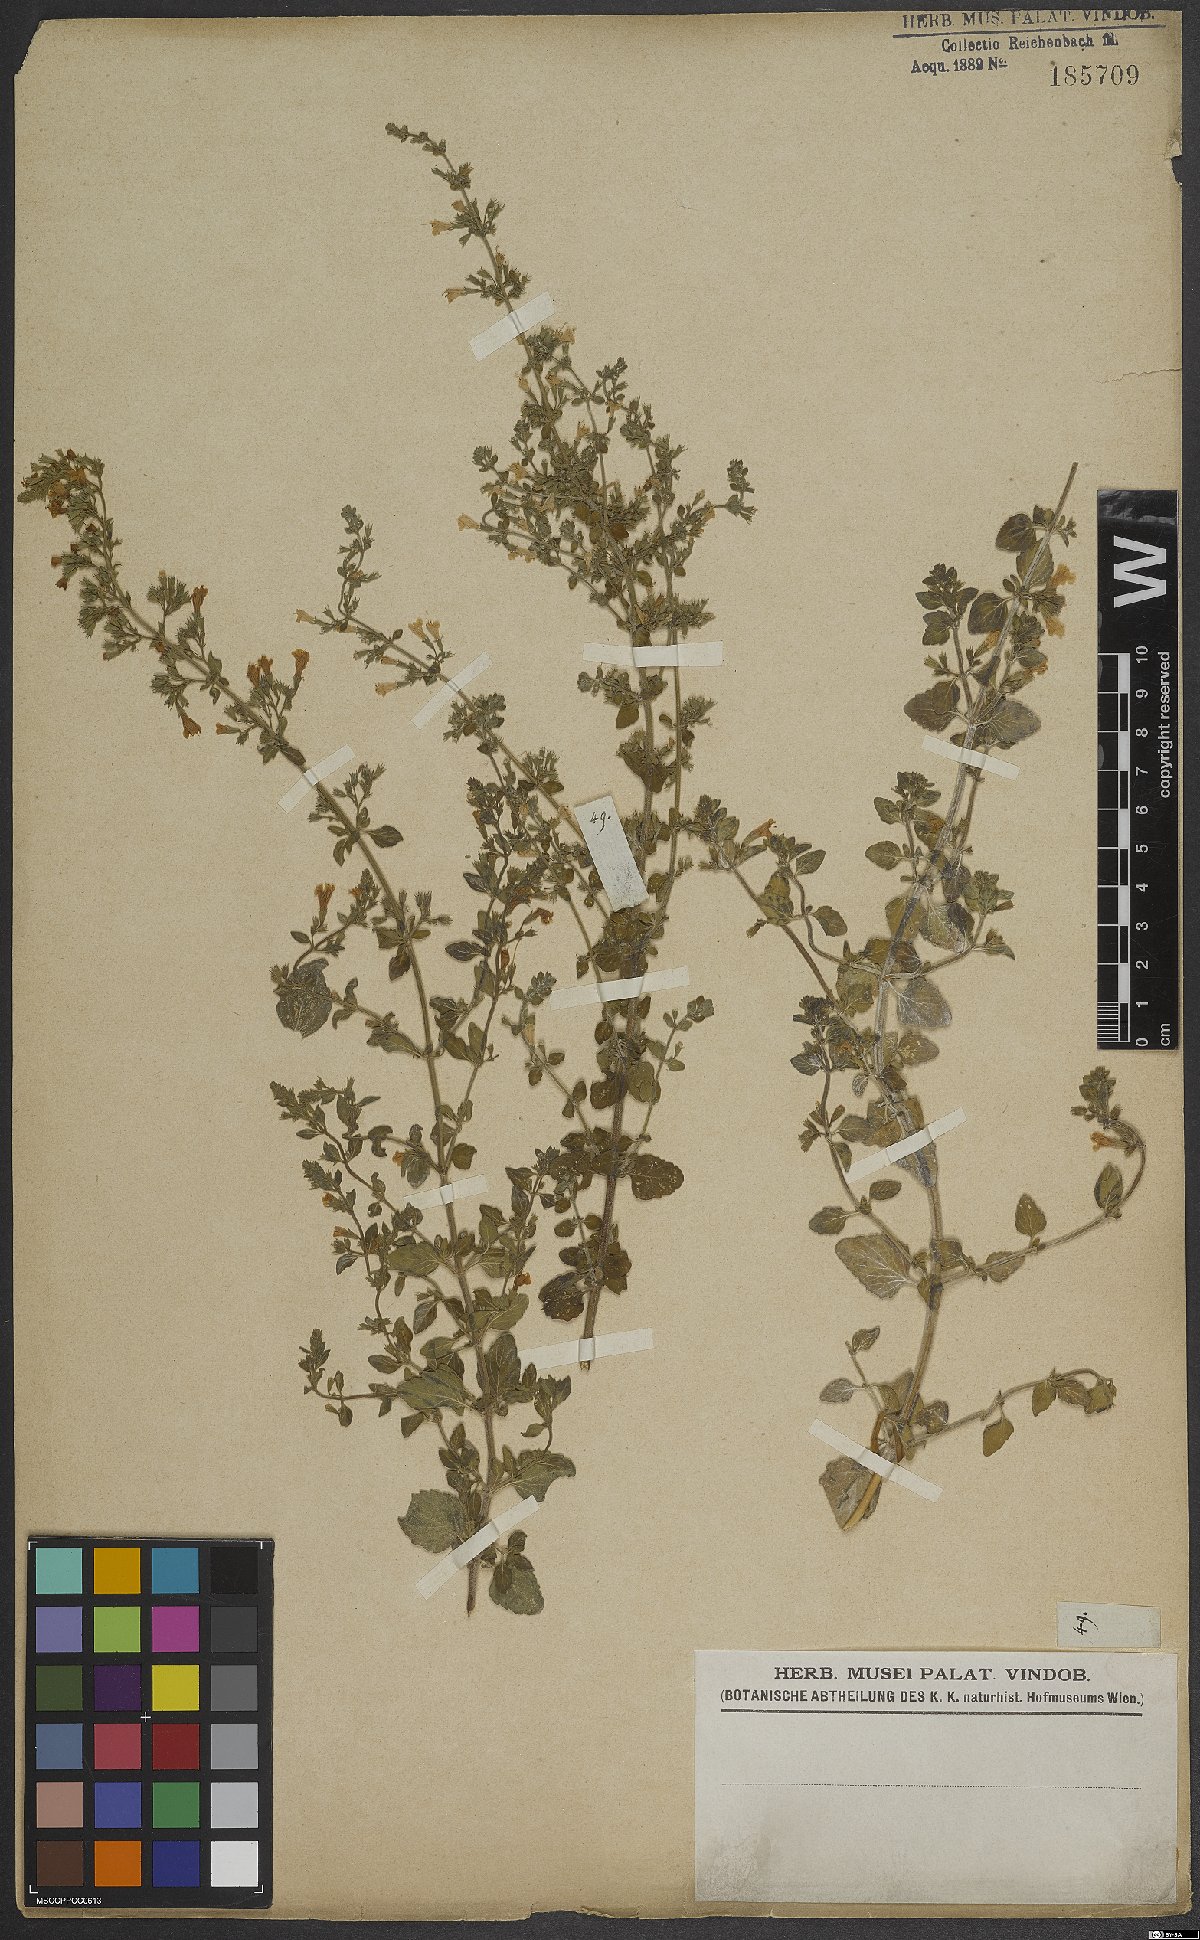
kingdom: Plantae
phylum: Tracheophyta
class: Magnoliopsida
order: Lamiales
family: Lamiaceae
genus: Calamintha
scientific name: Calamintha
